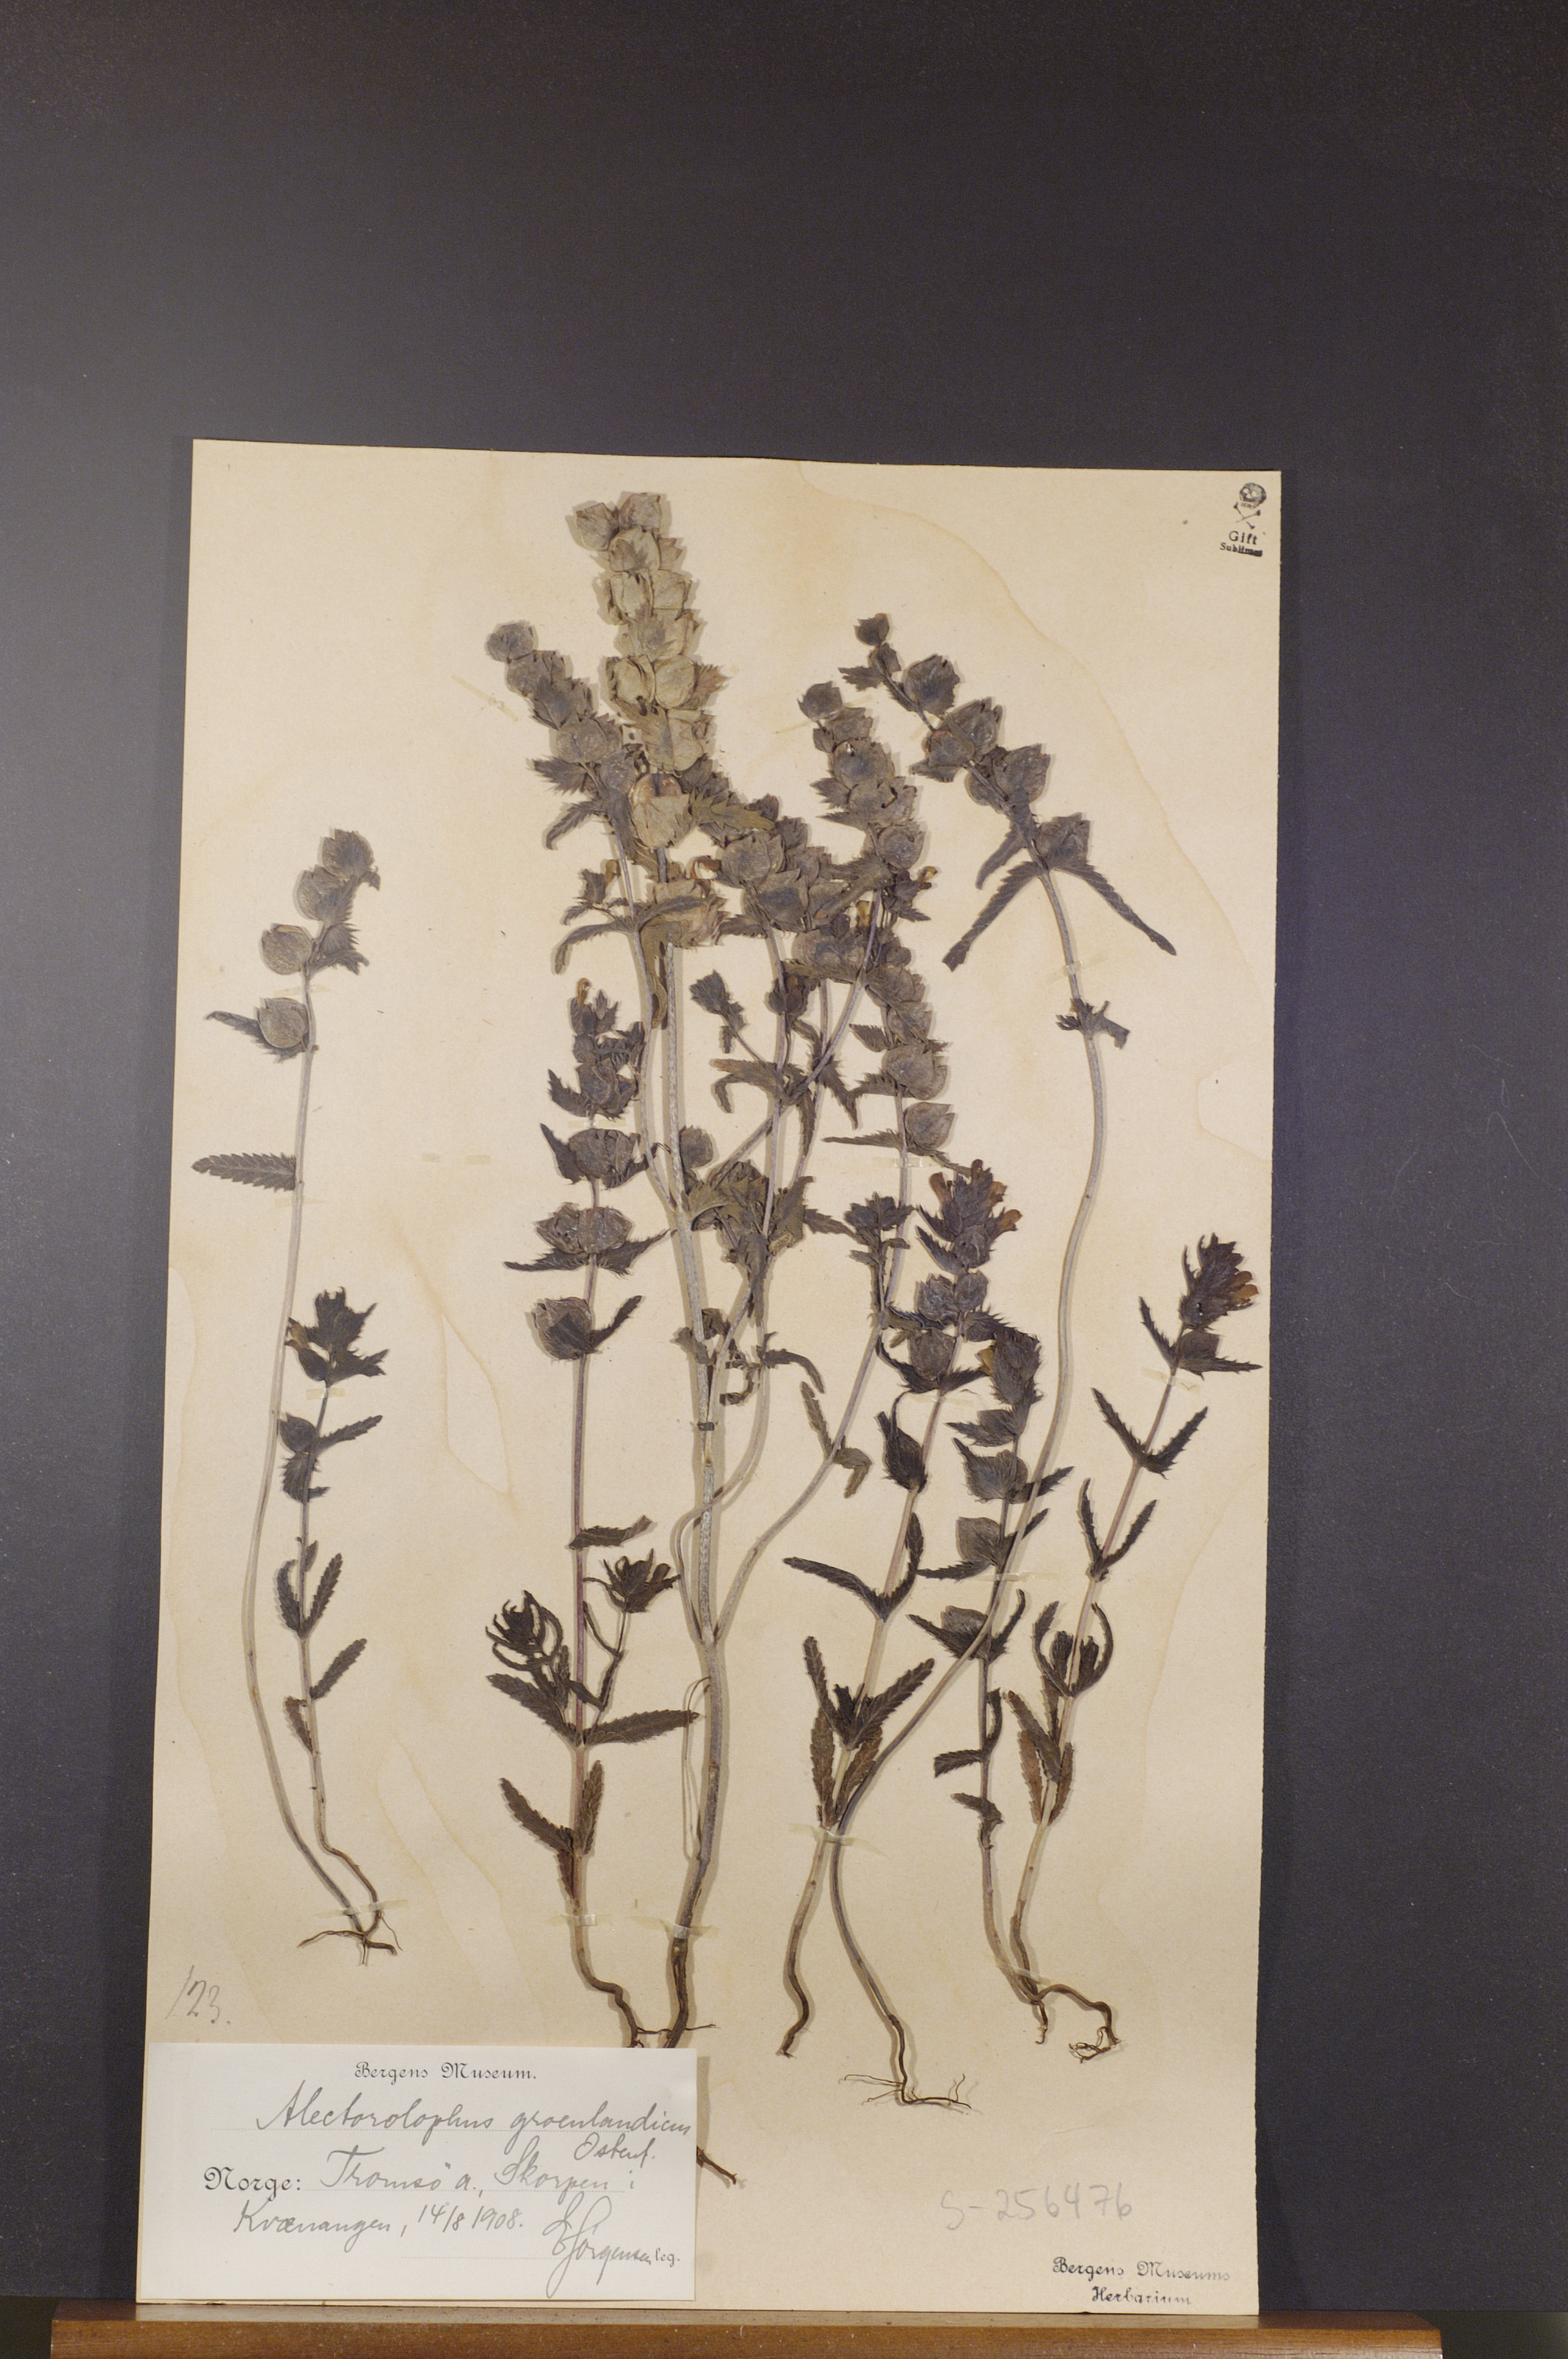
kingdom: Plantae
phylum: Tracheophyta
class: Magnoliopsida
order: Lamiales
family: Orobanchaceae
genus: Rhinanthus
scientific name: Rhinanthus groenlandicus
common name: Little yellow rattle
